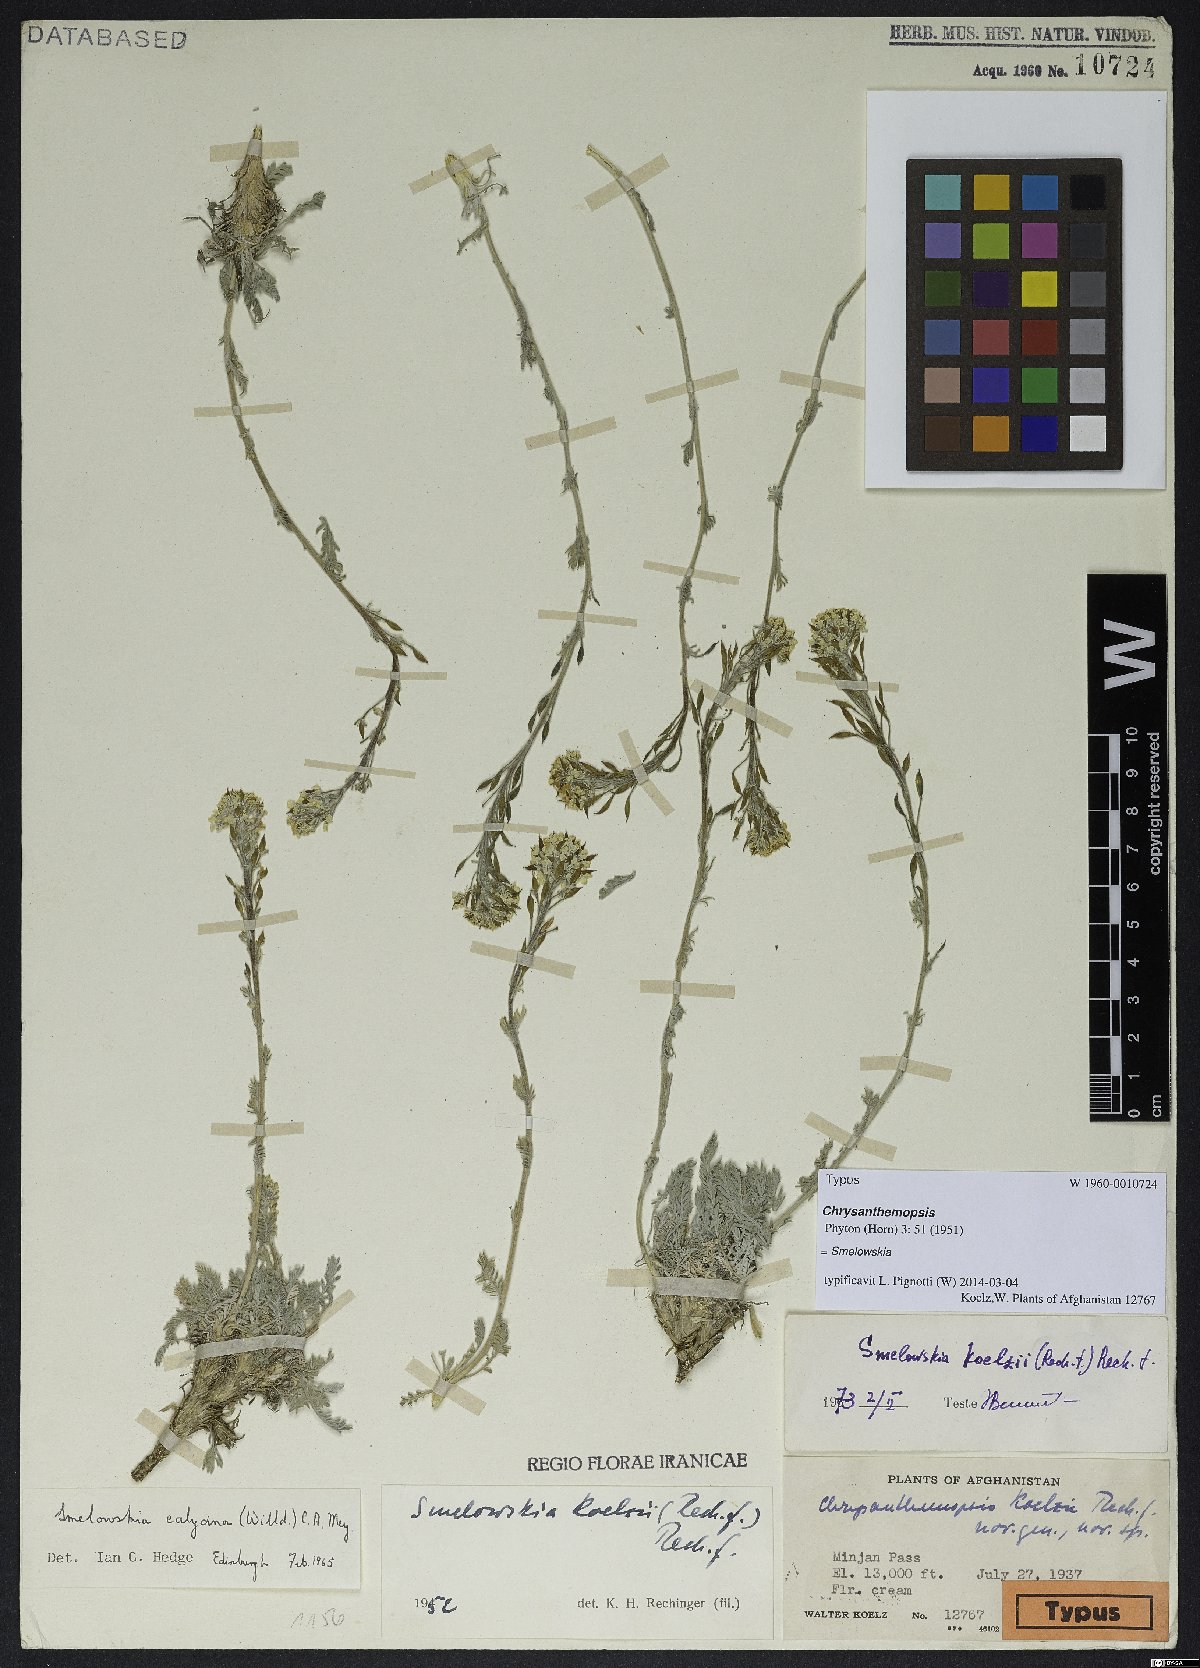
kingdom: Plantae
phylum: Tracheophyta
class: Magnoliopsida
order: Brassicales
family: Brassicaceae
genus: Smelowskia
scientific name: Smelowskia calycina
